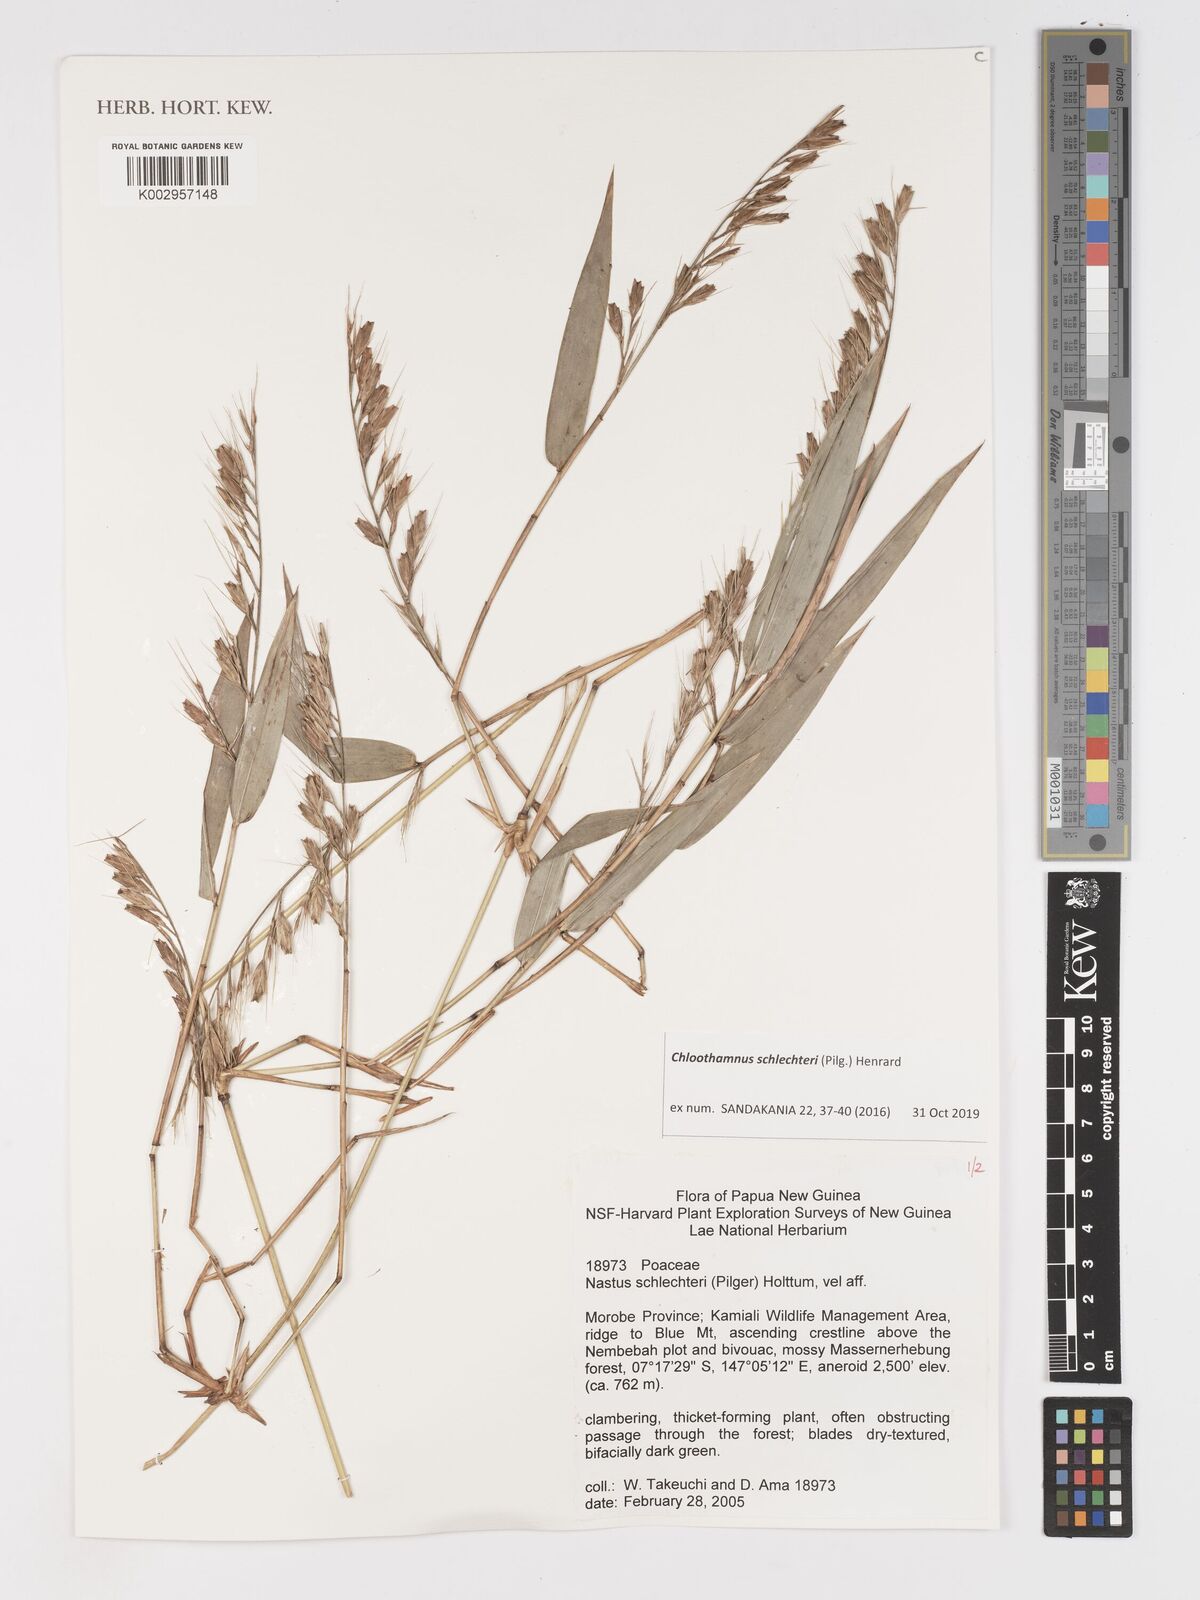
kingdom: Plantae
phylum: Tracheophyta
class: Liliopsida
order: Poales
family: Poaceae
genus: Chloothamnus
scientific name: Chloothamnus schlechteri
